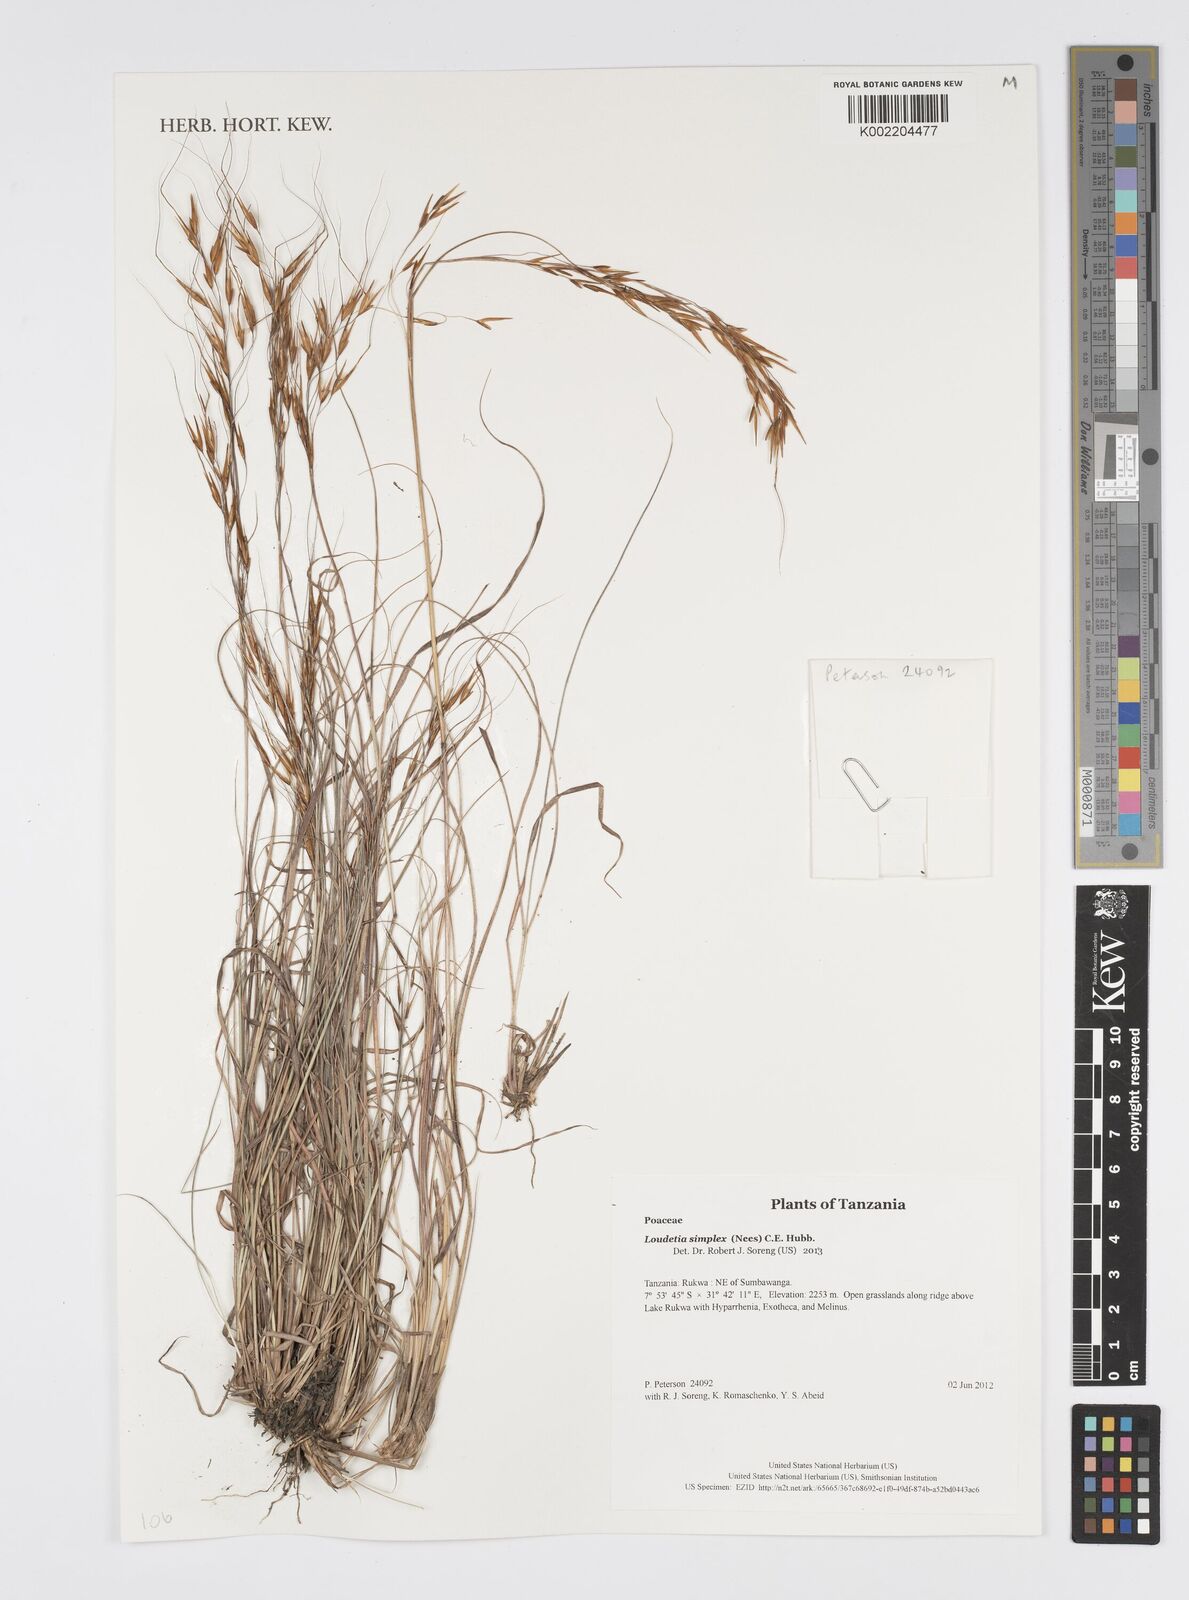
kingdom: Plantae
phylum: Tracheophyta
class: Liliopsida
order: Poales
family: Poaceae
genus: Loudetia
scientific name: Loudetia simplex
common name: Common russet grass
